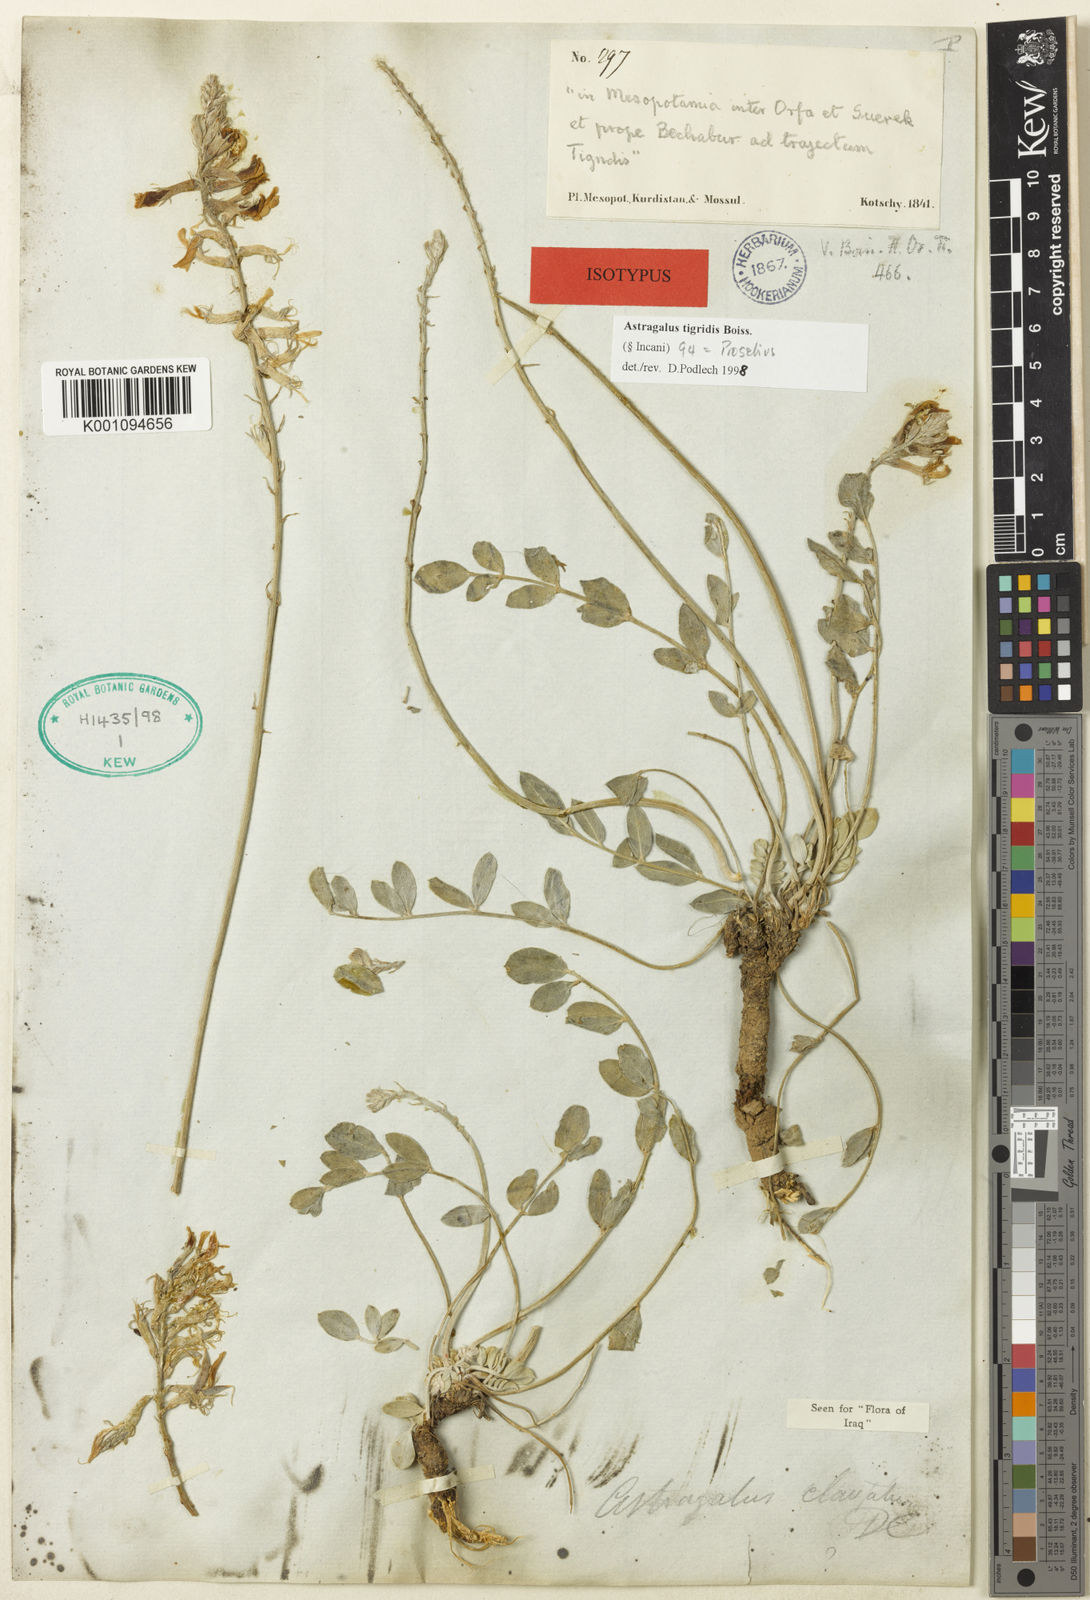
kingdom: Plantae
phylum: Tracheophyta
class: Magnoliopsida
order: Fabales
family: Fabaceae
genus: Astragalus
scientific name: Astragalus
